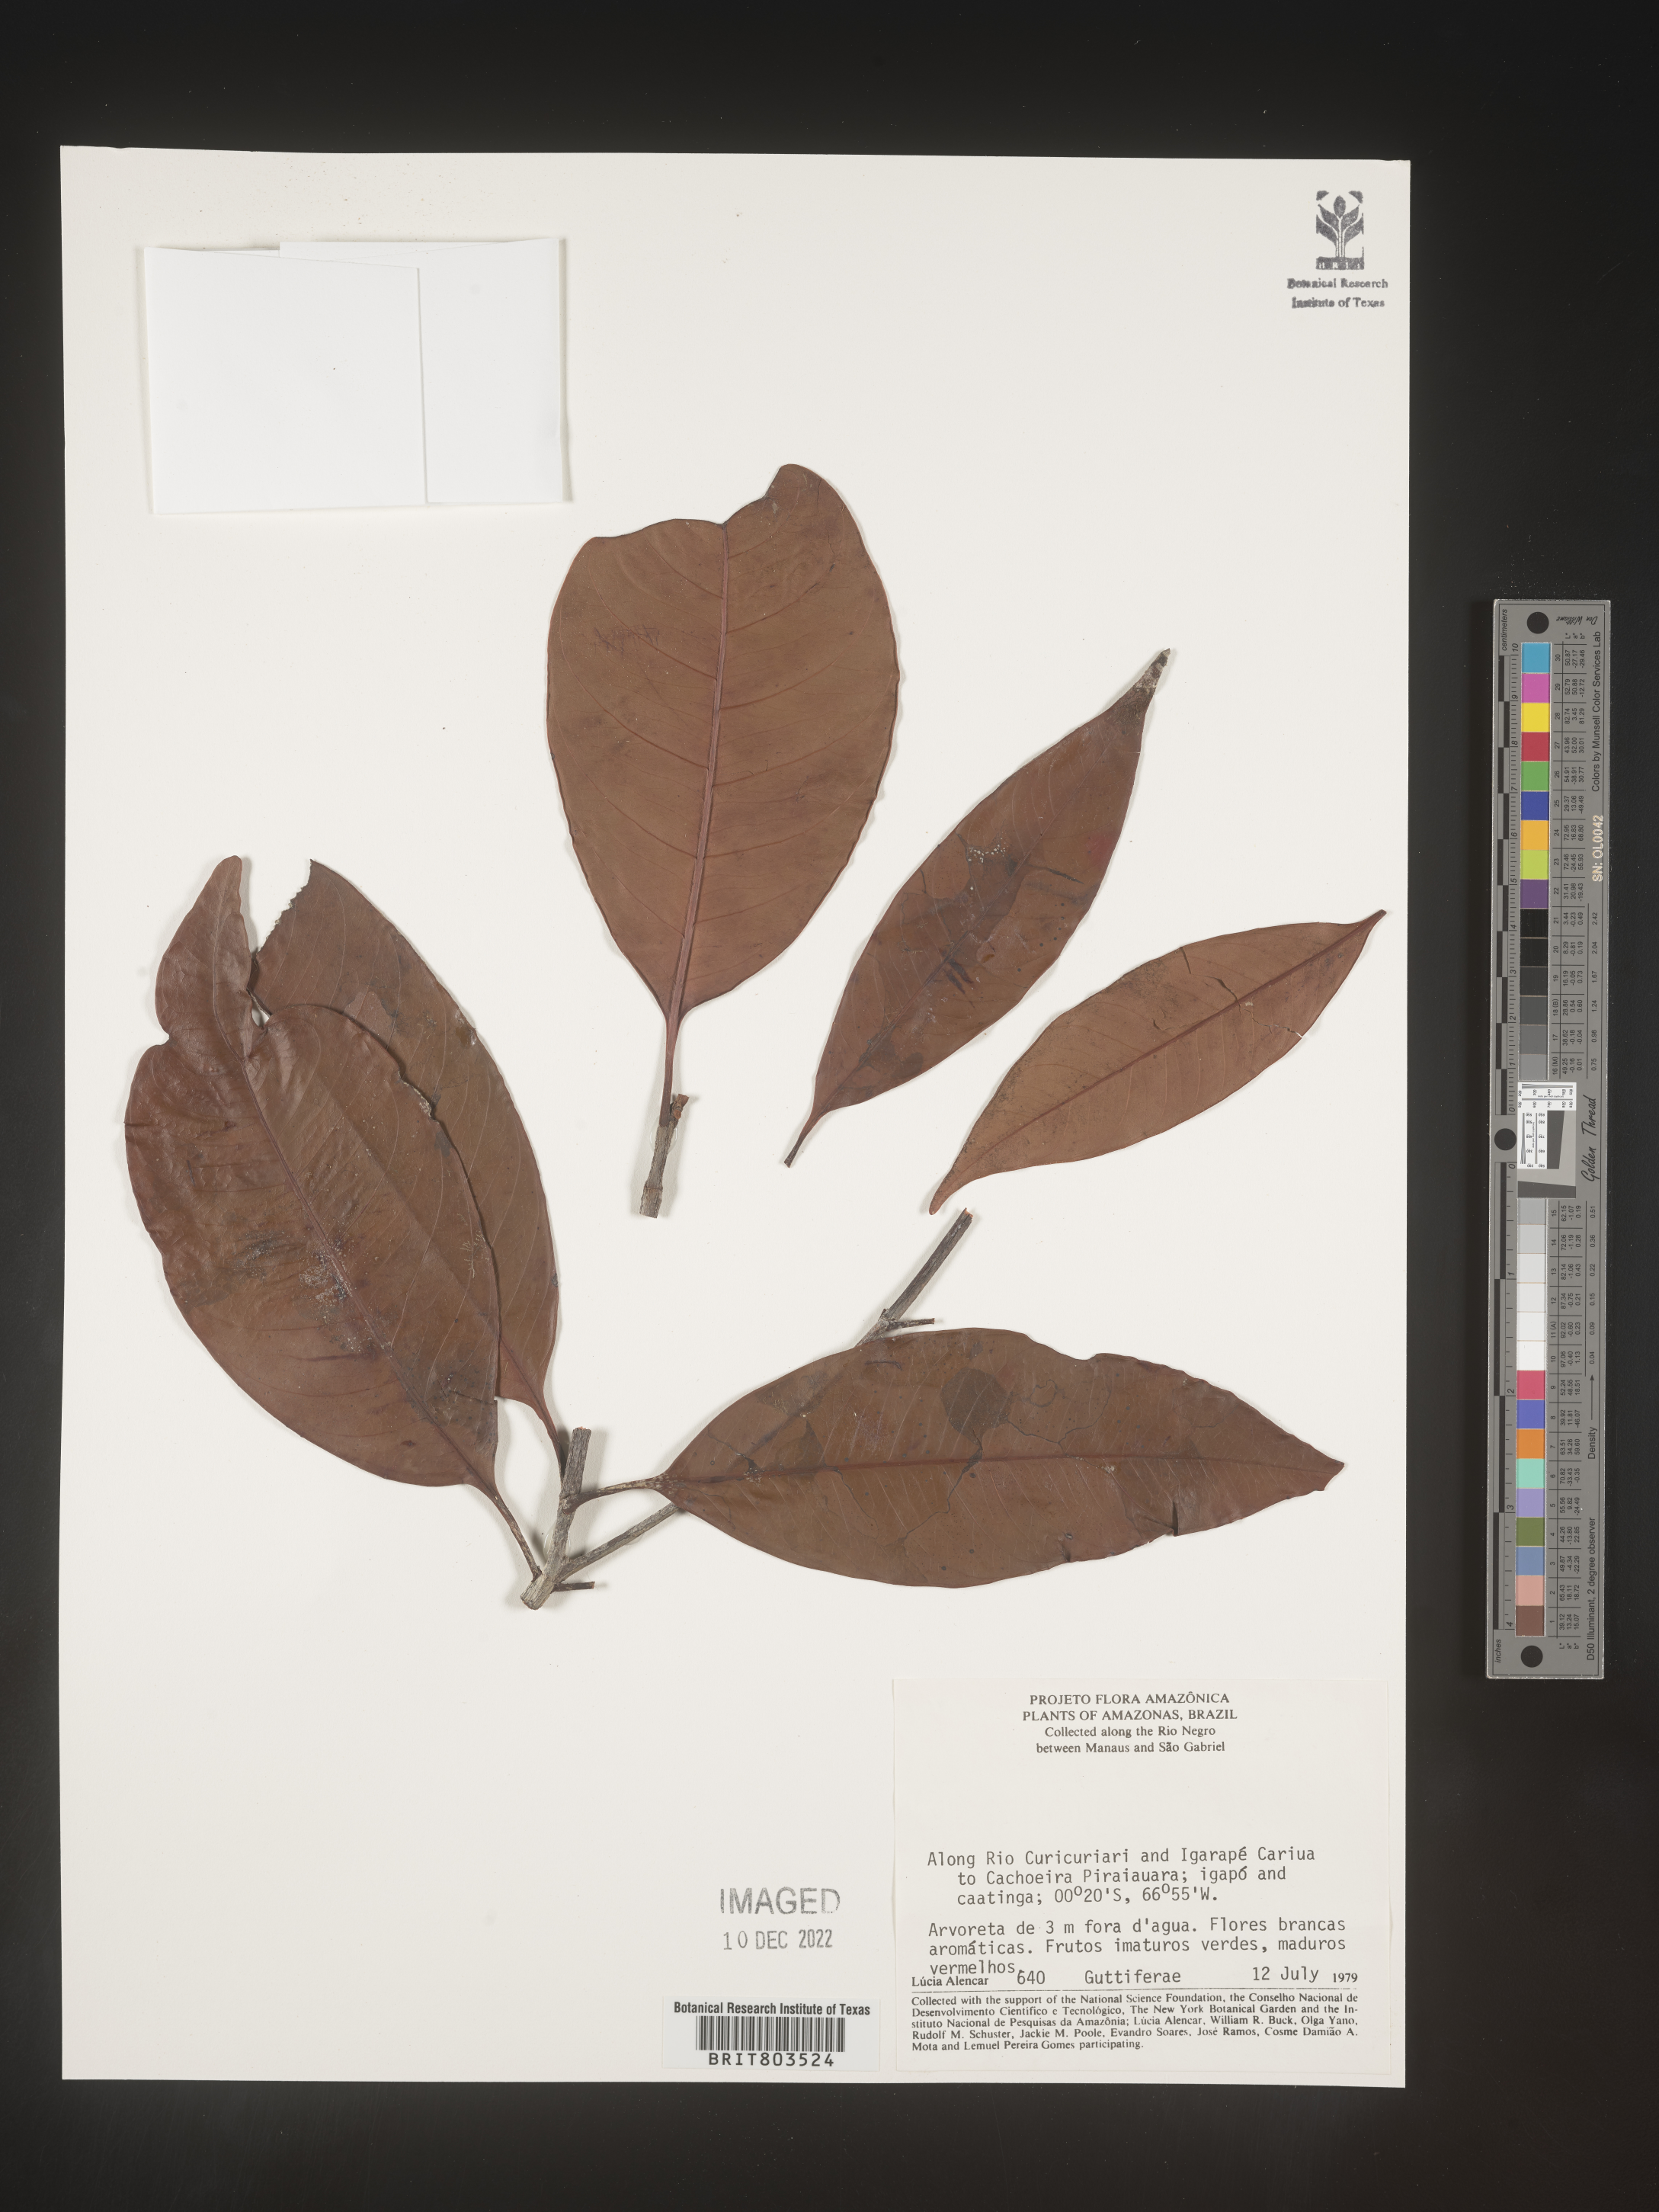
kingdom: Plantae
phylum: Tracheophyta
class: Magnoliopsida
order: Malpighiales
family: Clusiaceae
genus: Tovomita
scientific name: Tovomita
